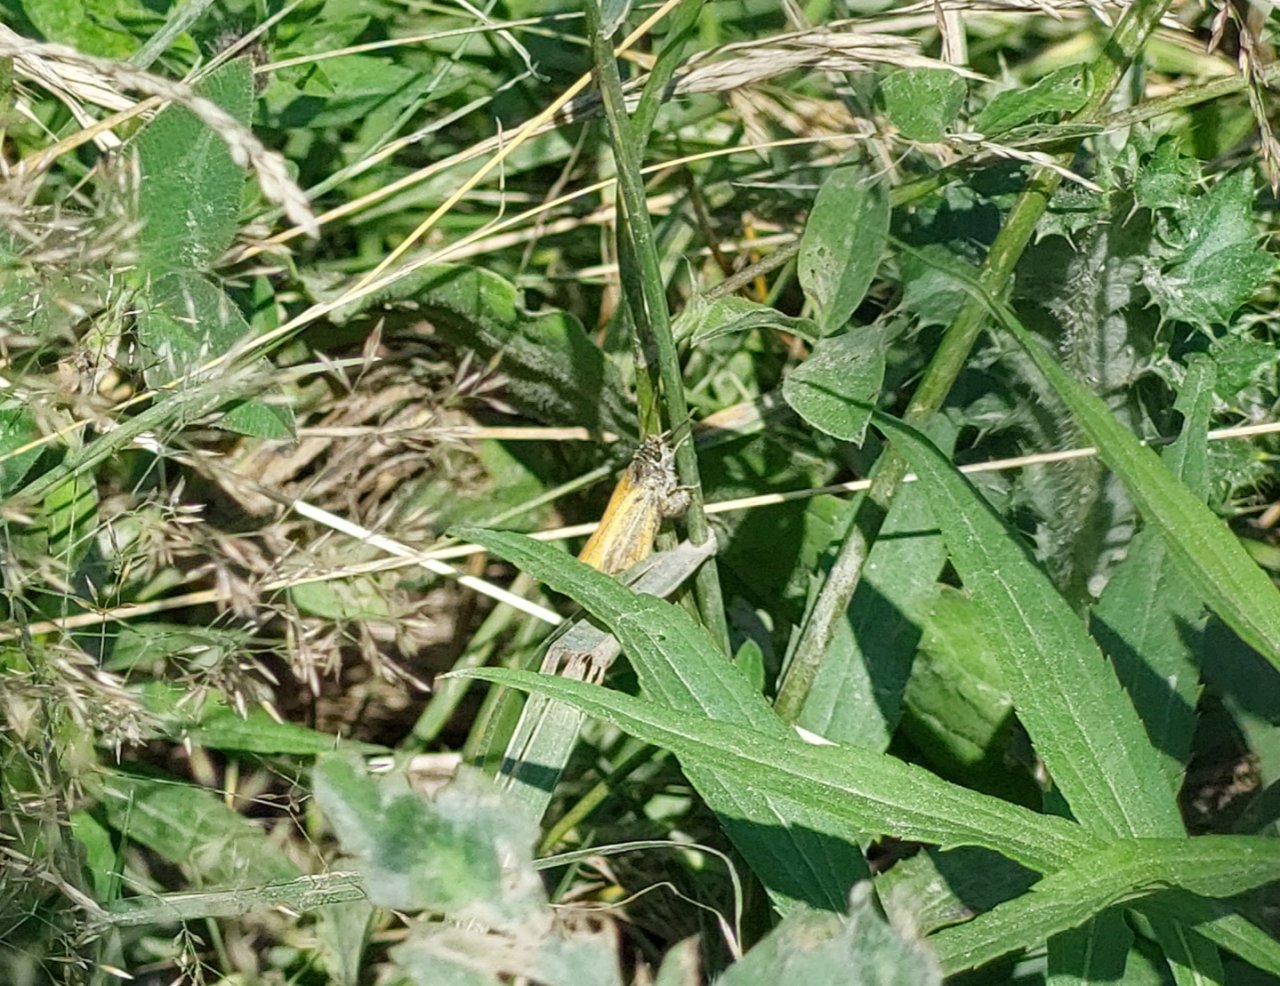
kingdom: Animalia
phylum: Arthropoda
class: Insecta
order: Lepidoptera
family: Hesperiidae
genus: Thymelicus
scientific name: Thymelicus lineola
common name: European Skipper
